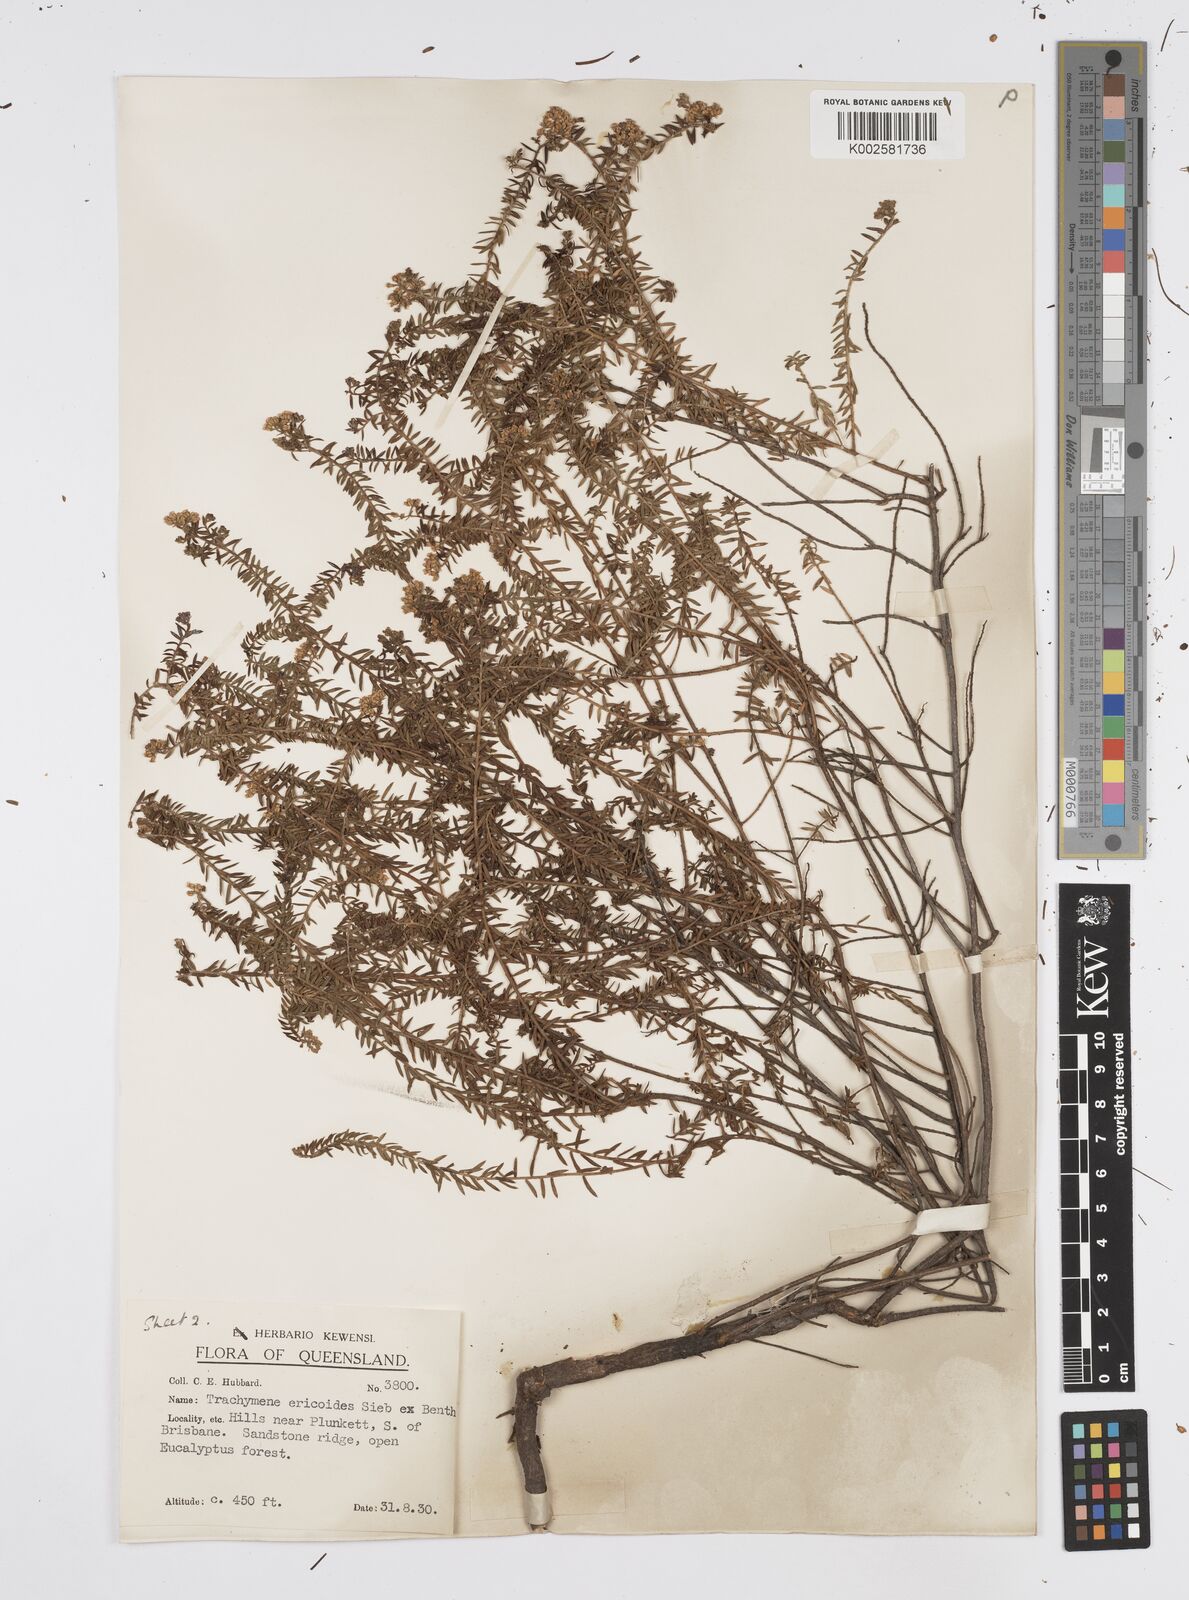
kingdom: Plantae
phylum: Tracheophyta
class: Magnoliopsida
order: Apiales
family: Apiaceae
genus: Platysace
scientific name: Platysace ericoides
